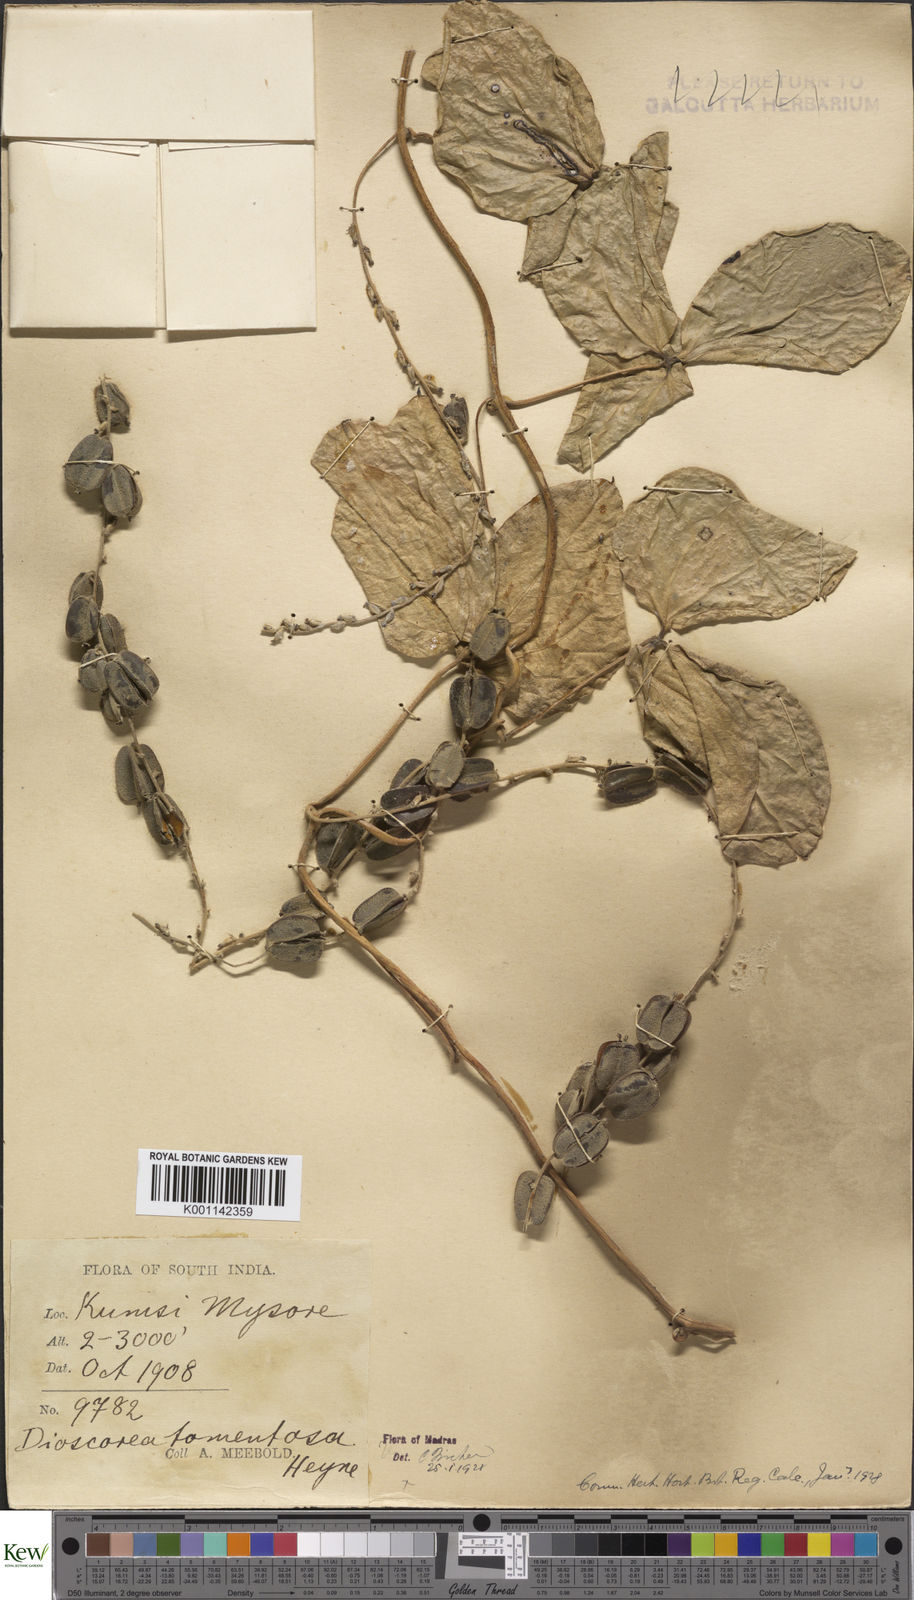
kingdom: Plantae
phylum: Tracheophyta
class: Liliopsida
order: Dioscoreales
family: Dioscoreaceae
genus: Dioscorea
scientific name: Dioscorea
